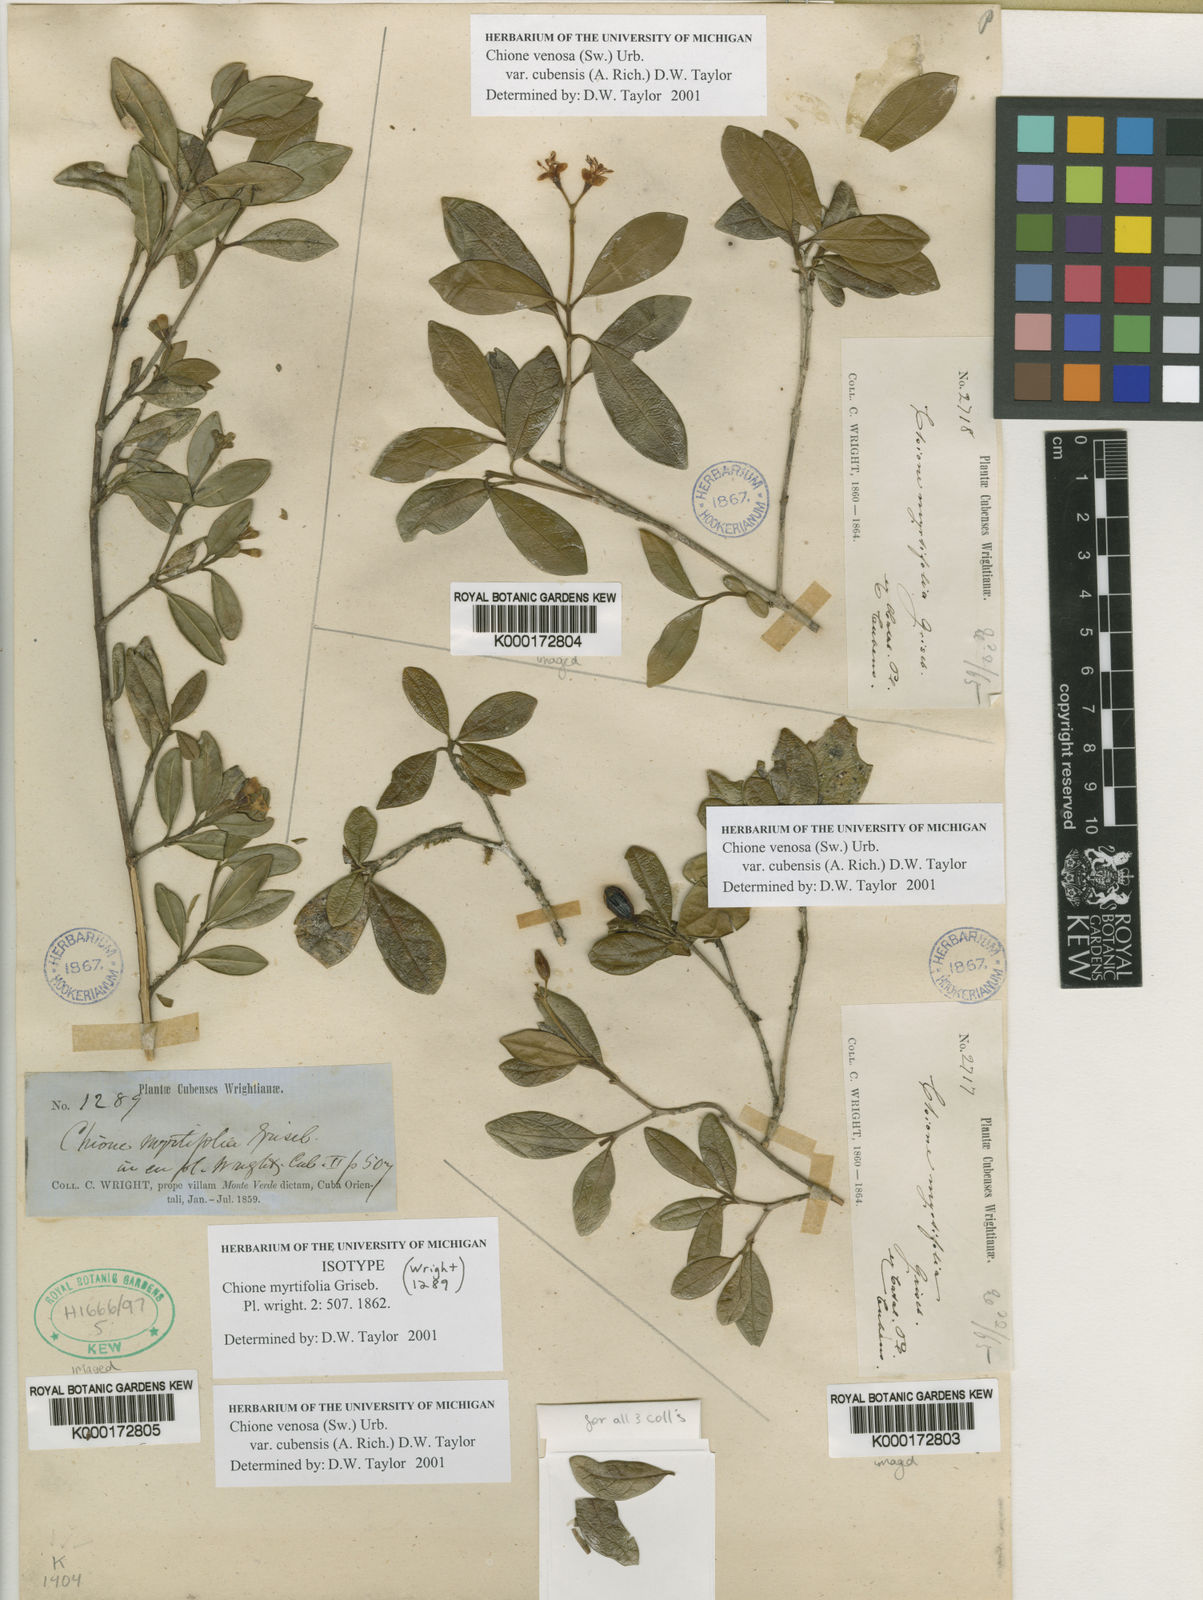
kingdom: Plantae
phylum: Tracheophyta
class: Magnoliopsida
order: Gentianales
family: Rubiaceae
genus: Chione
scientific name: Chione venosa
